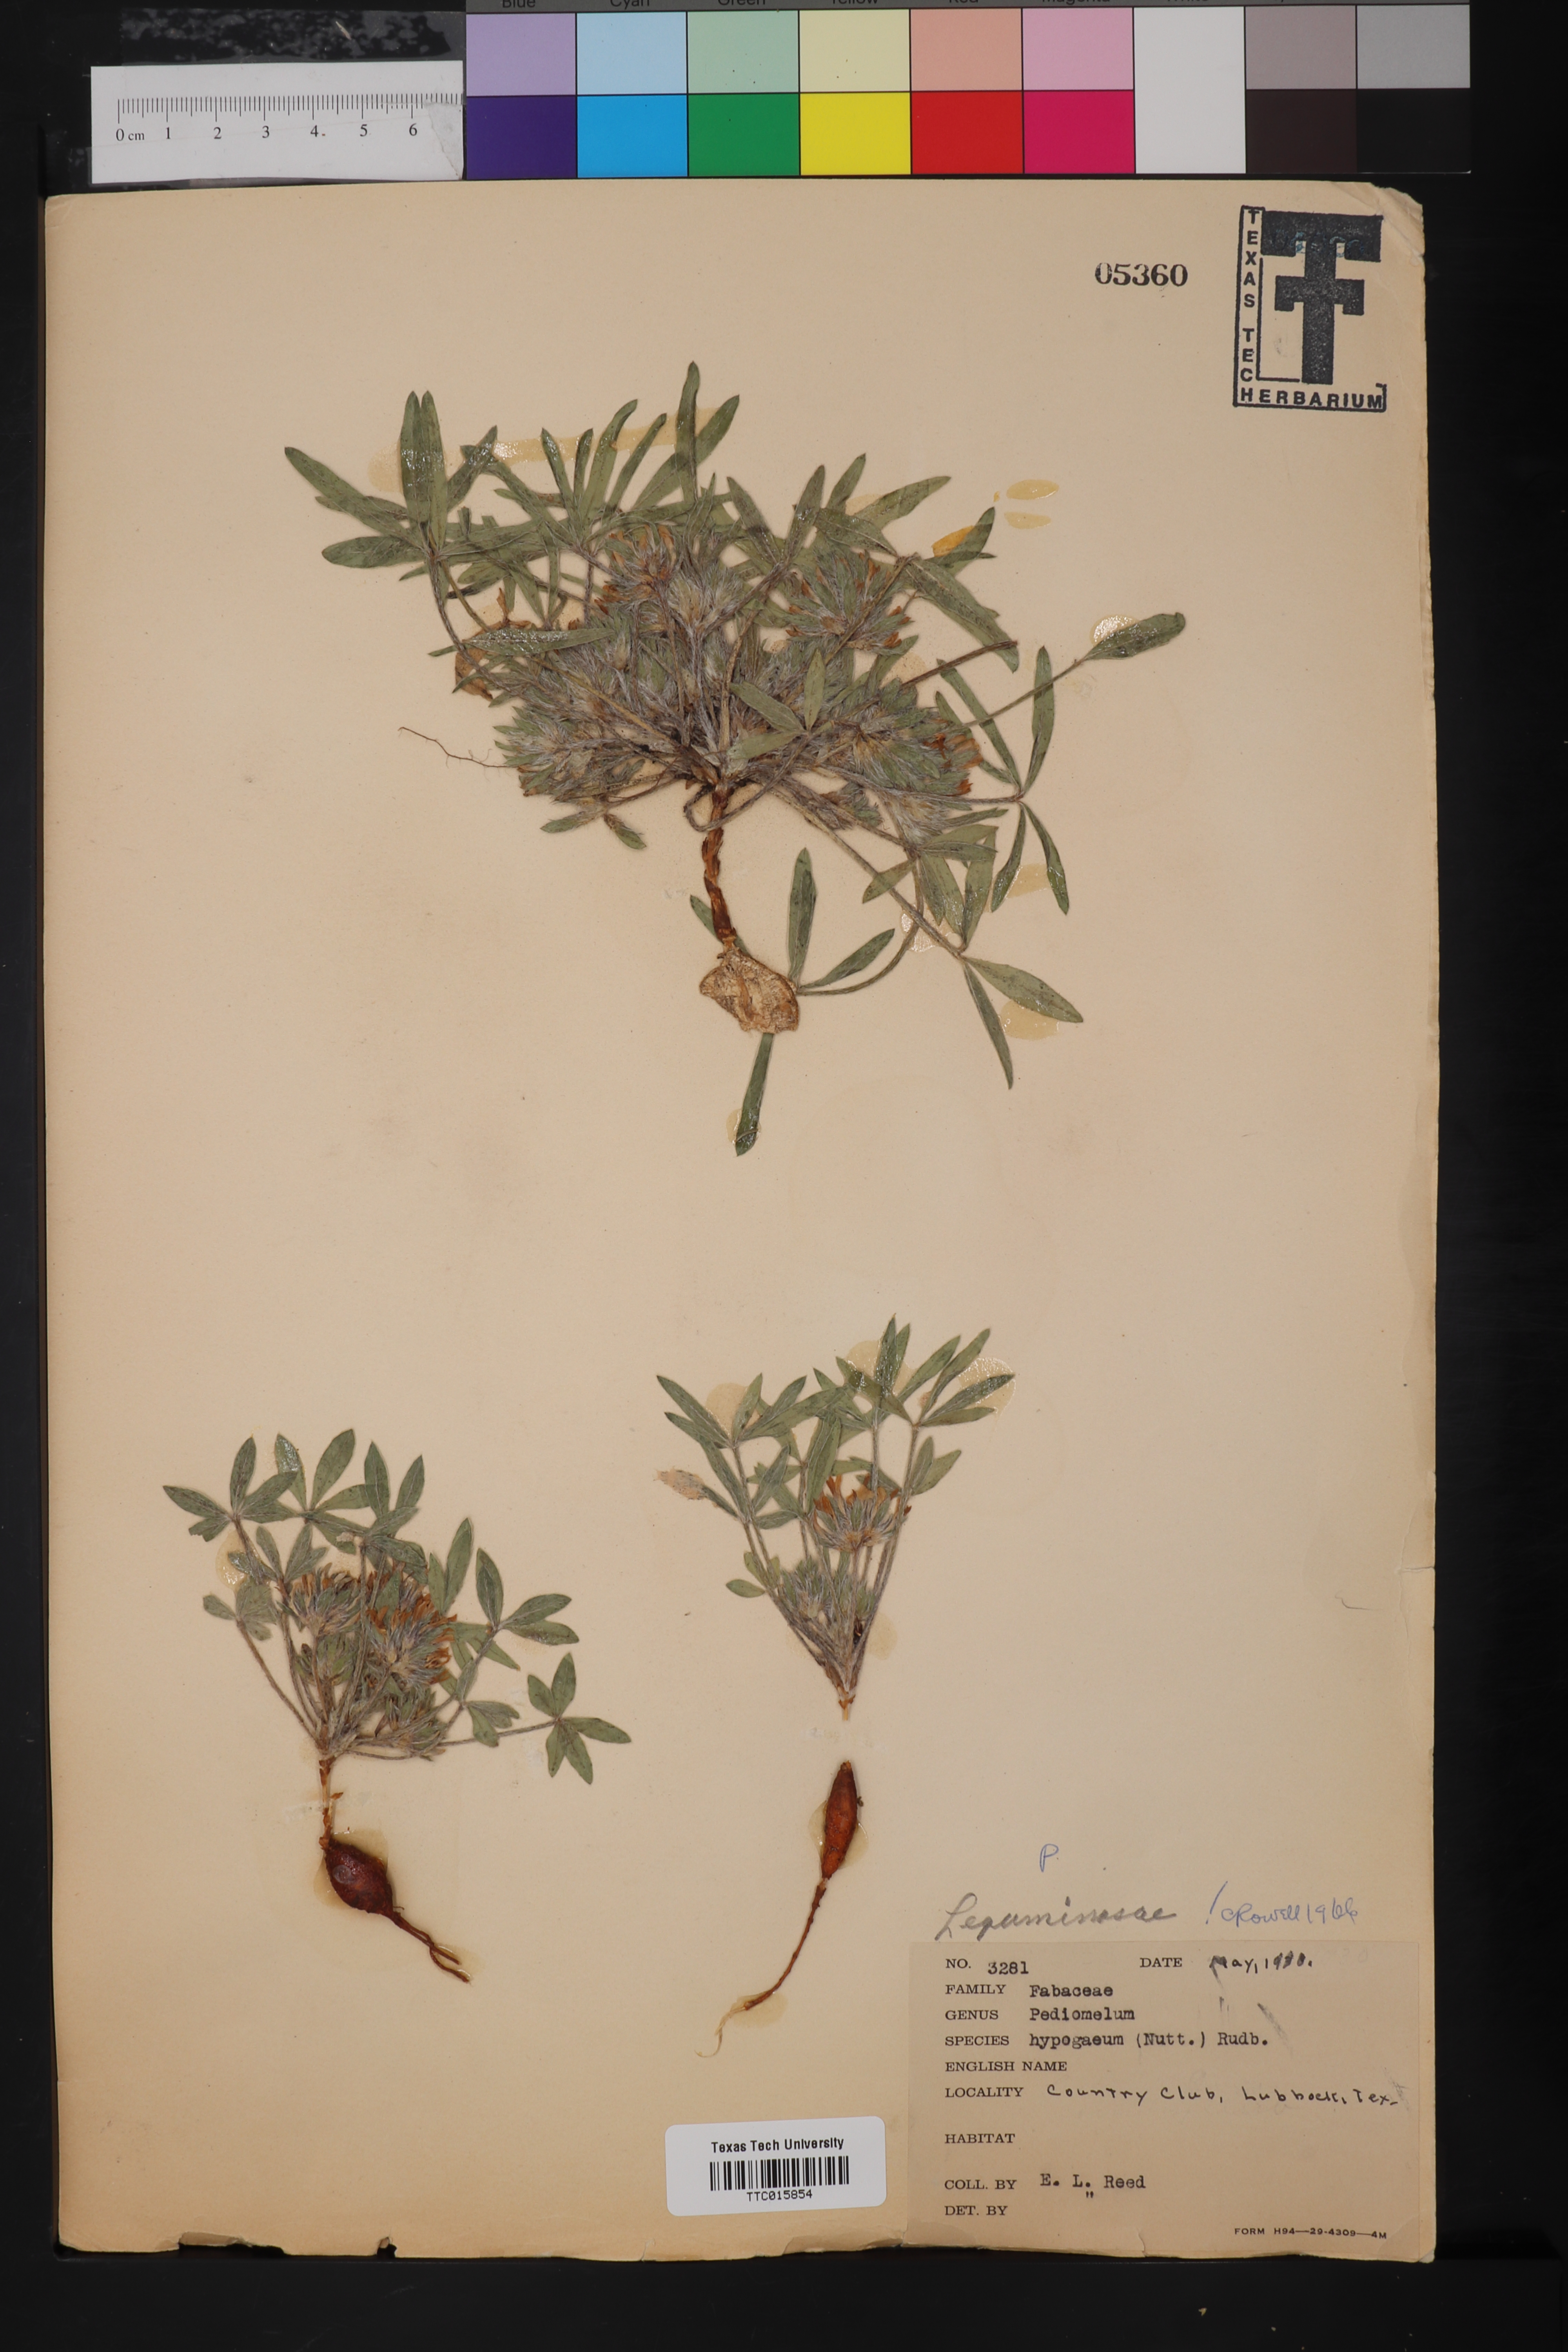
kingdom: Plantae
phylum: Tracheophyta
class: Magnoliopsida
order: Fabales
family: Fabaceae
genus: Pediomelum
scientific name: Pediomelum hypogaeum
